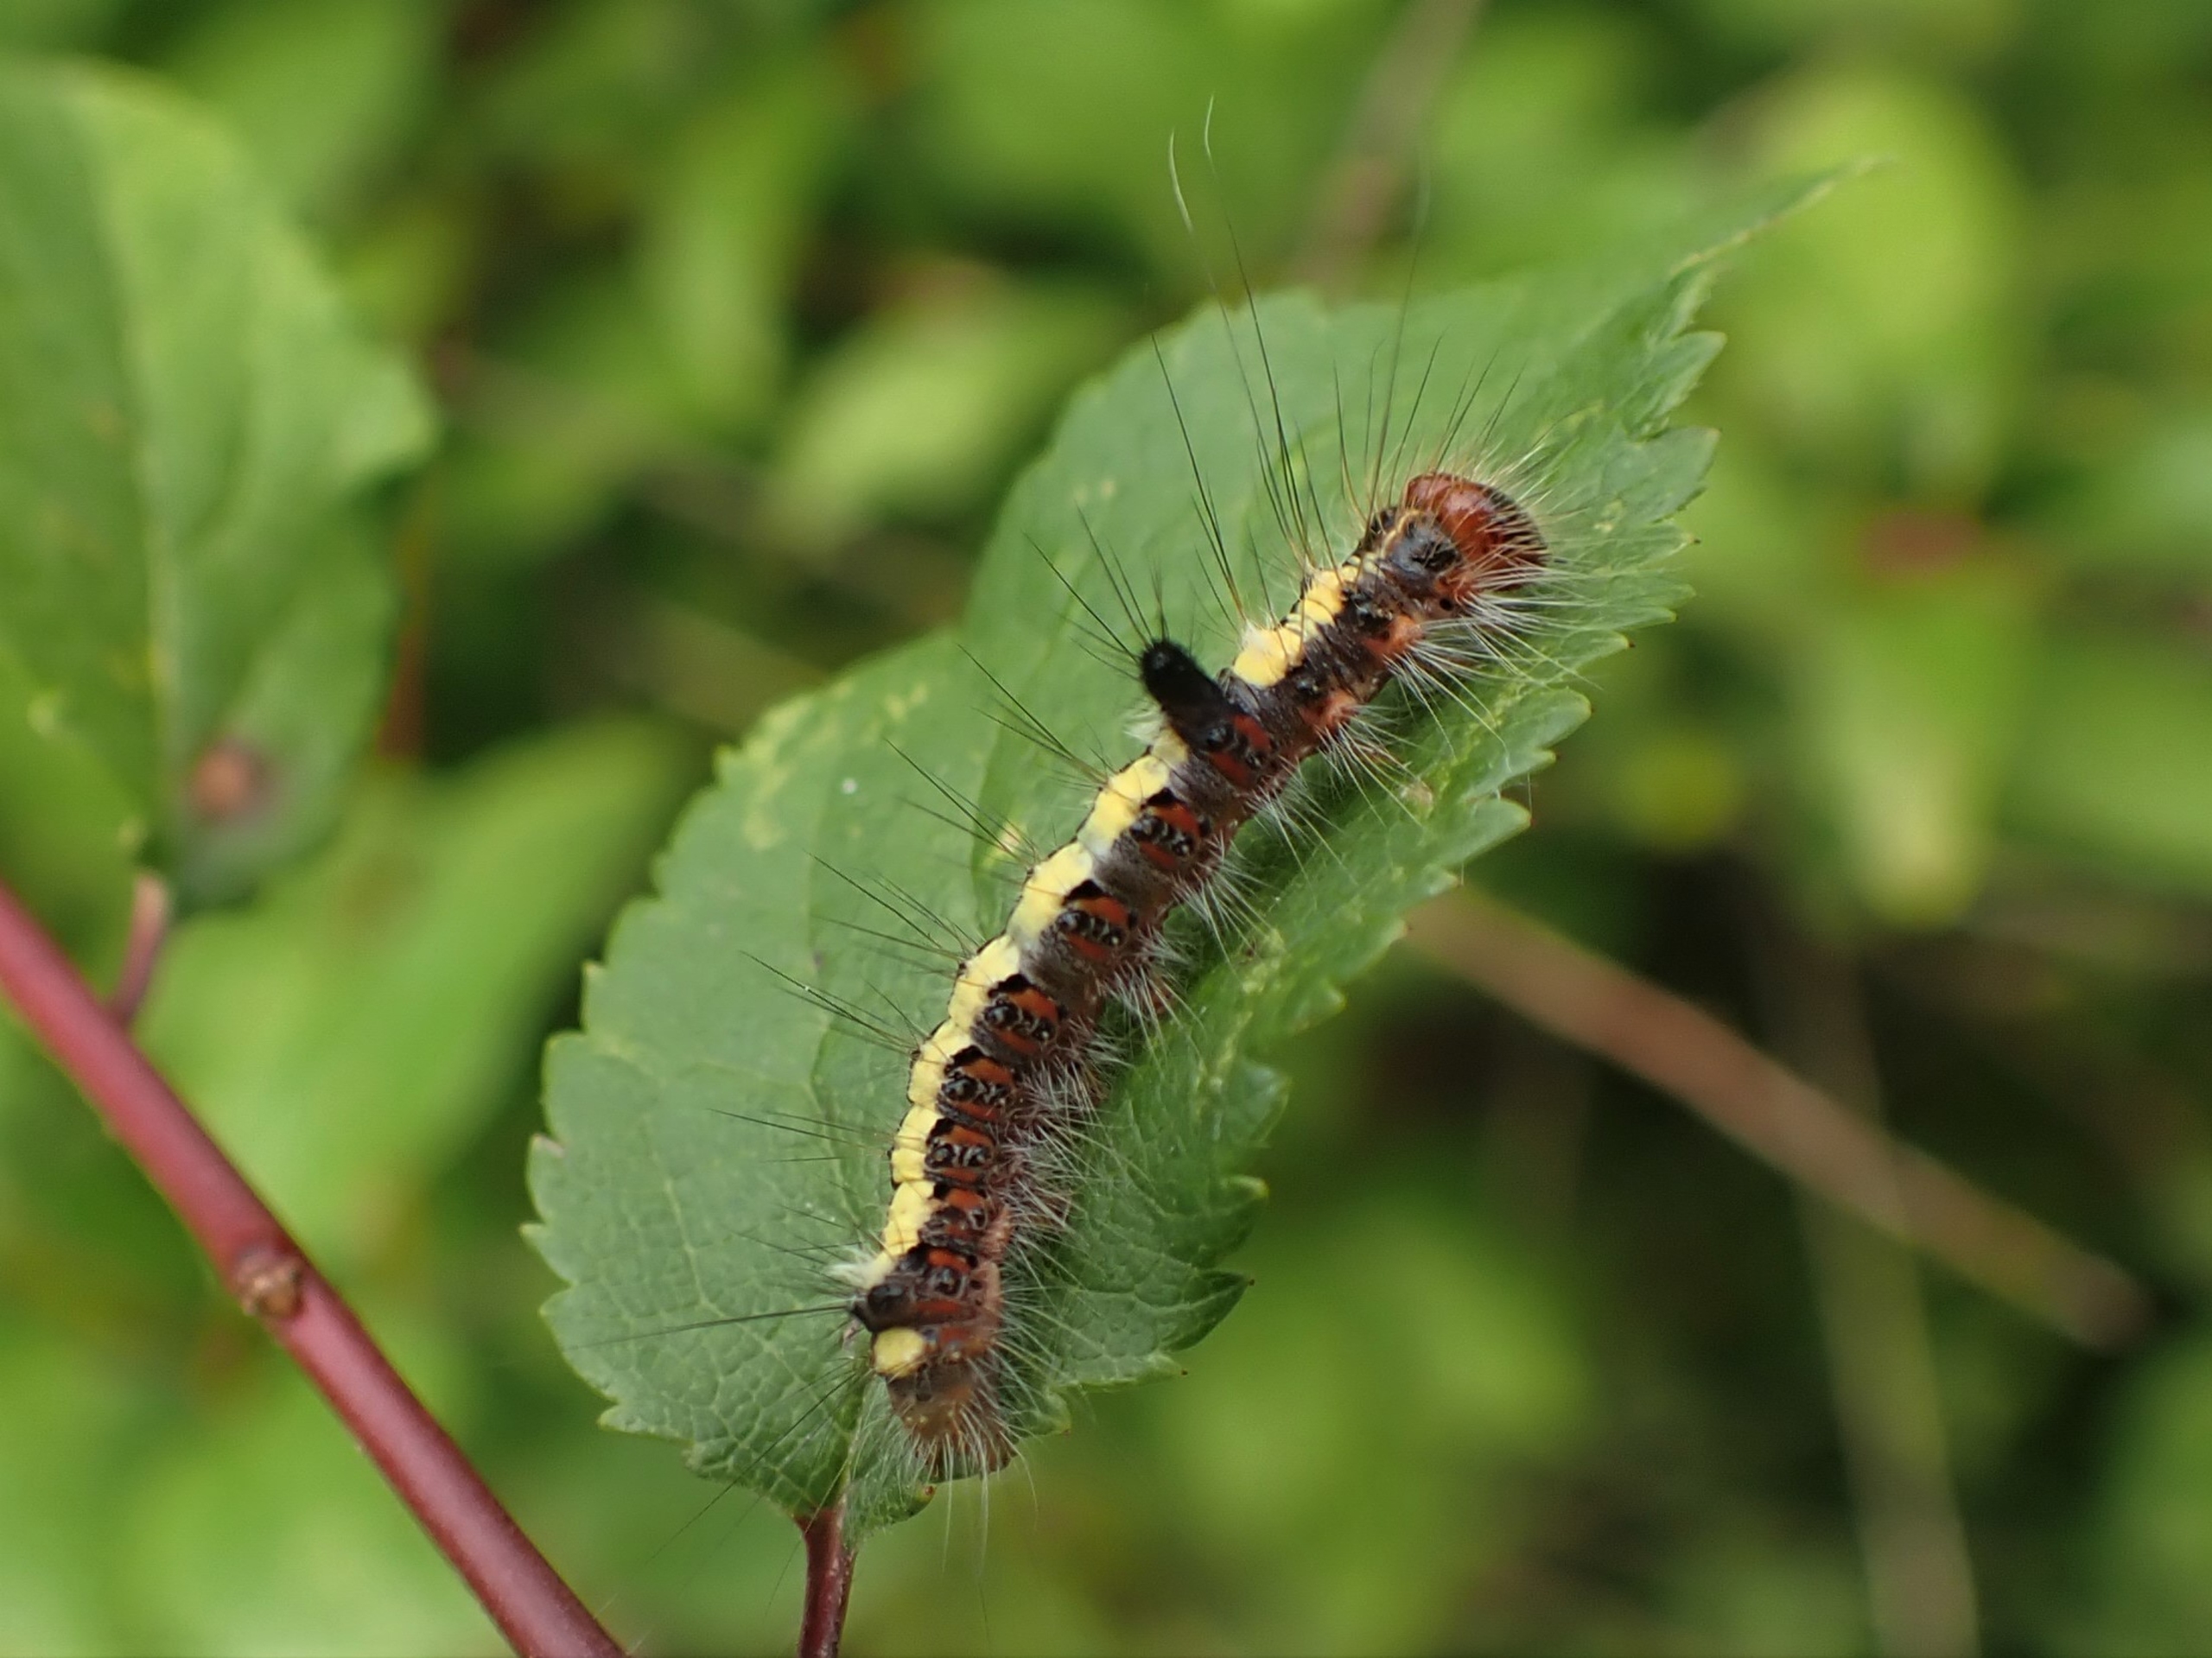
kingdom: Animalia
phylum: Arthropoda
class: Insecta
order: Lepidoptera
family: Noctuidae
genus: Acronicta
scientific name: Acronicta psi
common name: Psi-ugle
